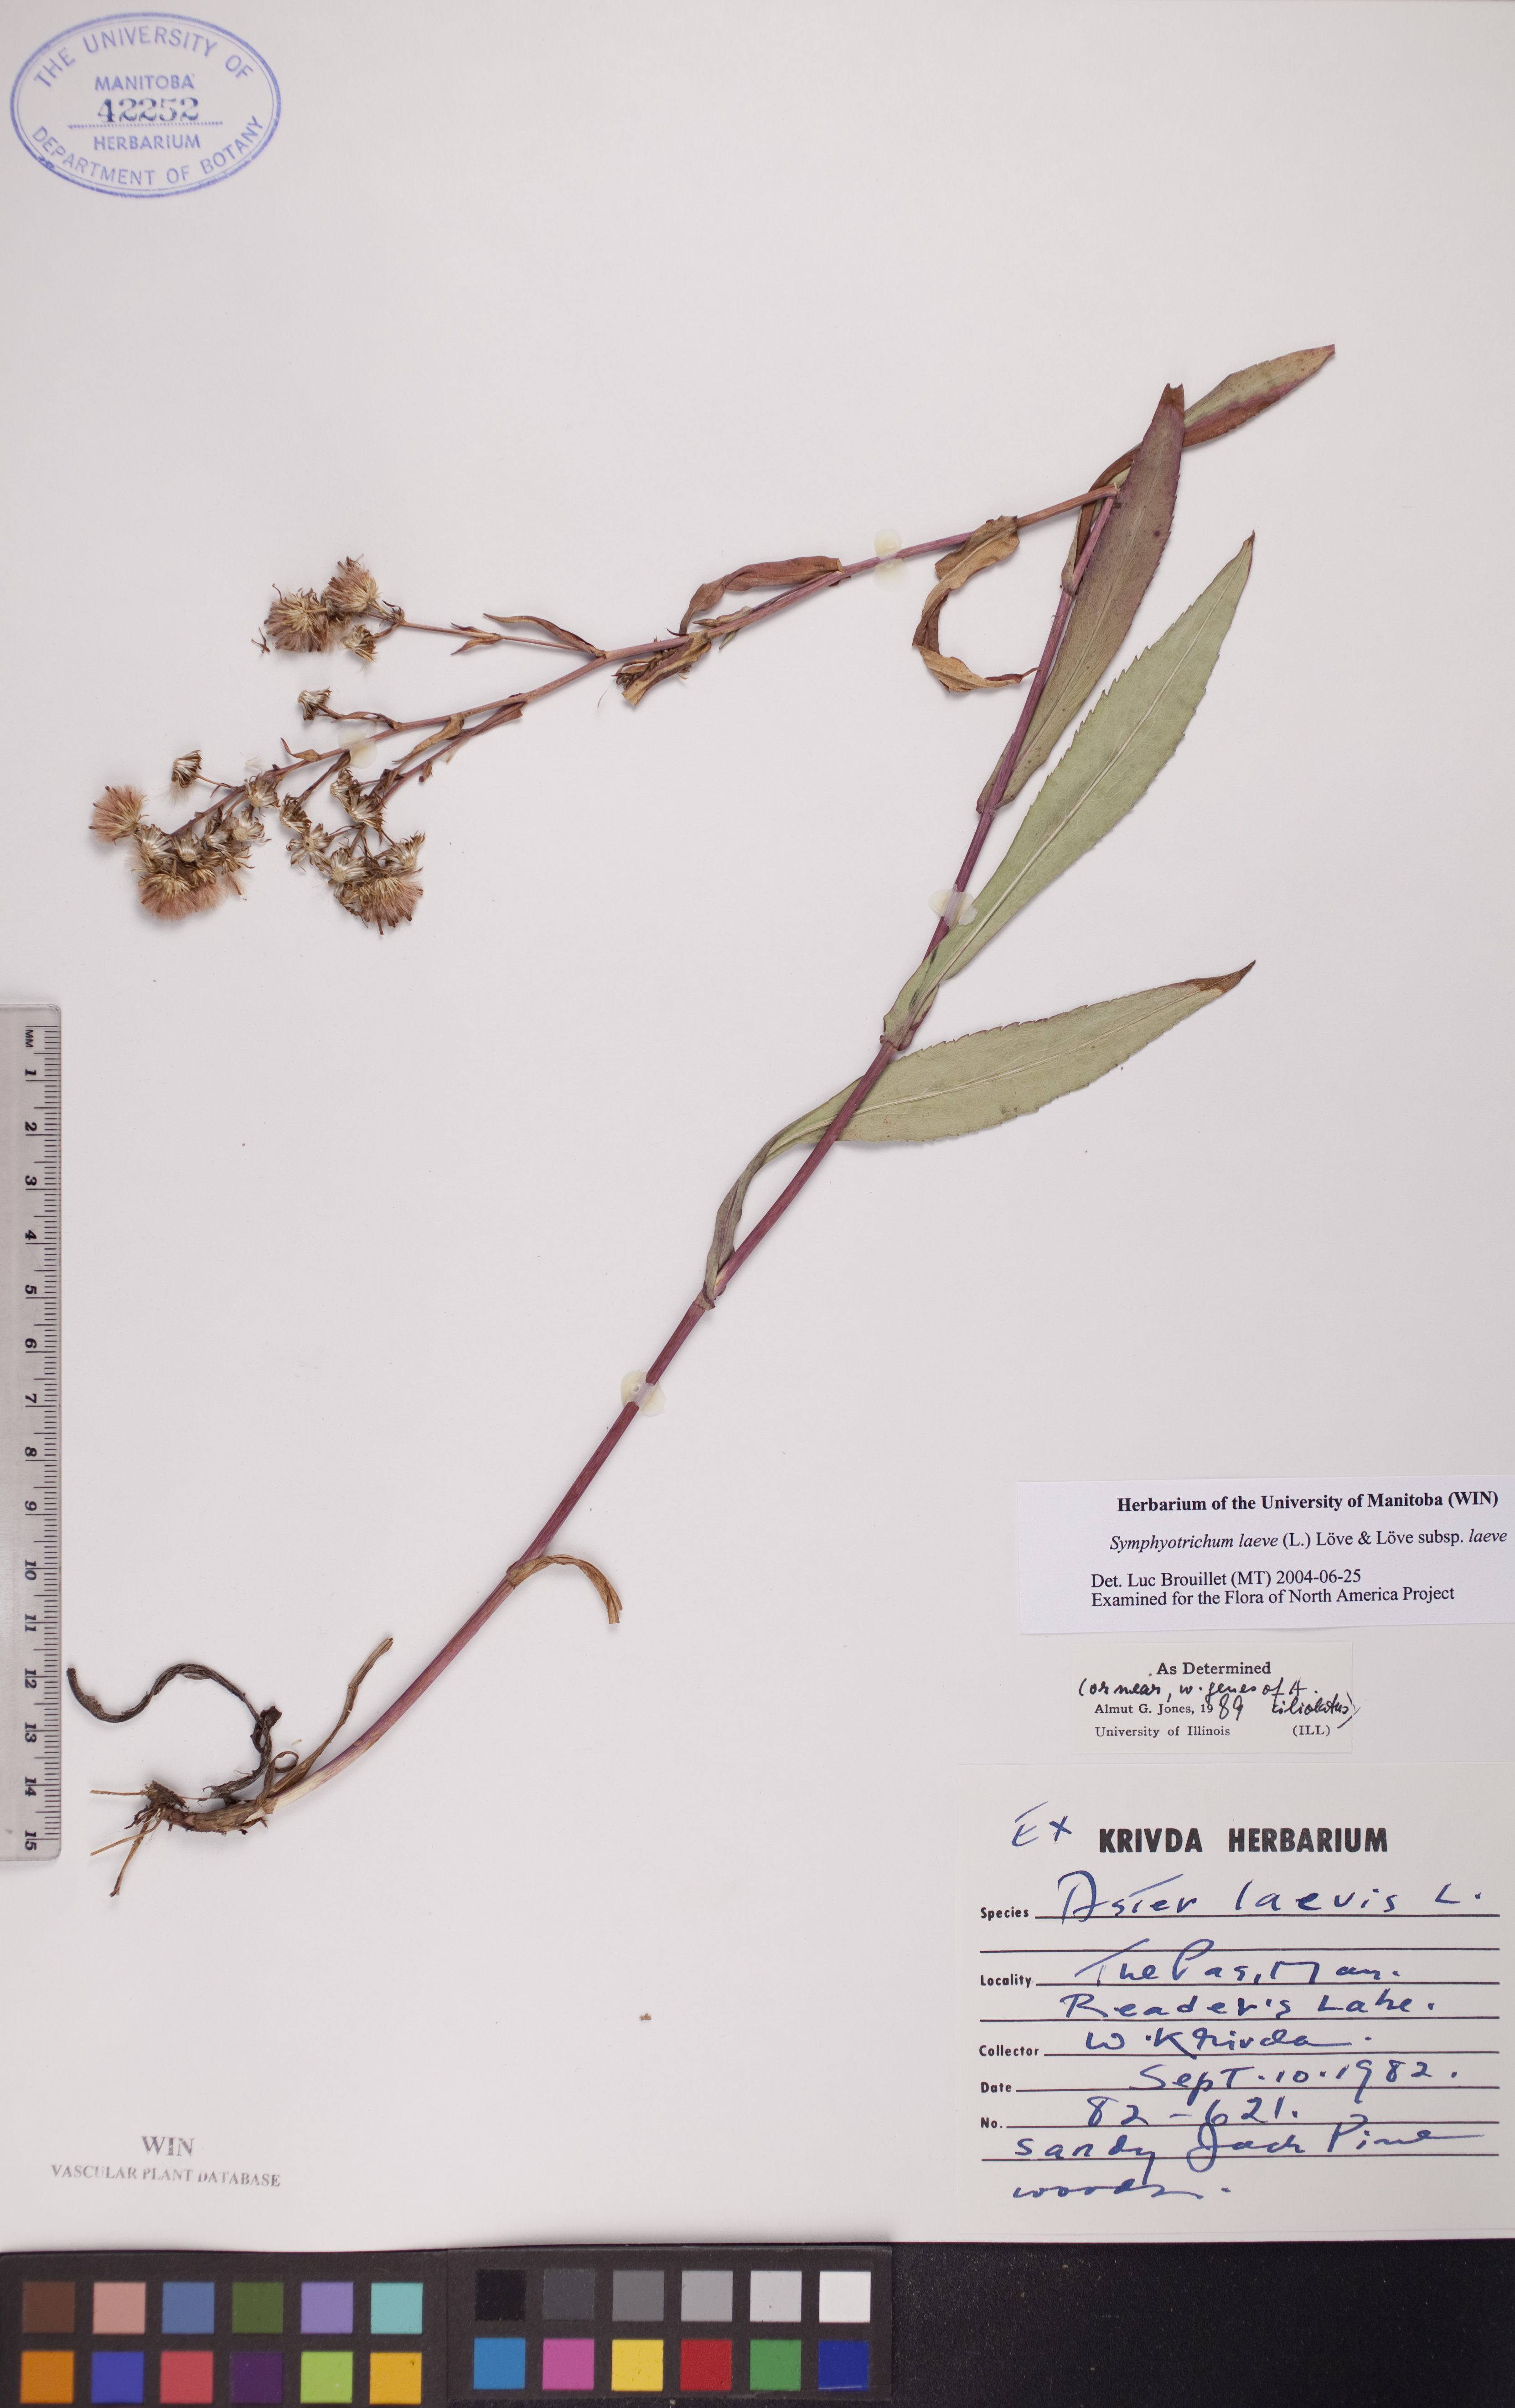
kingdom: Plantae
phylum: Tracheophyta
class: Magnoliopsida
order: Asterales
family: Asteraceae
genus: Symphyotrichum
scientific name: Symphyotrichum laeve
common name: Glaucous aster
